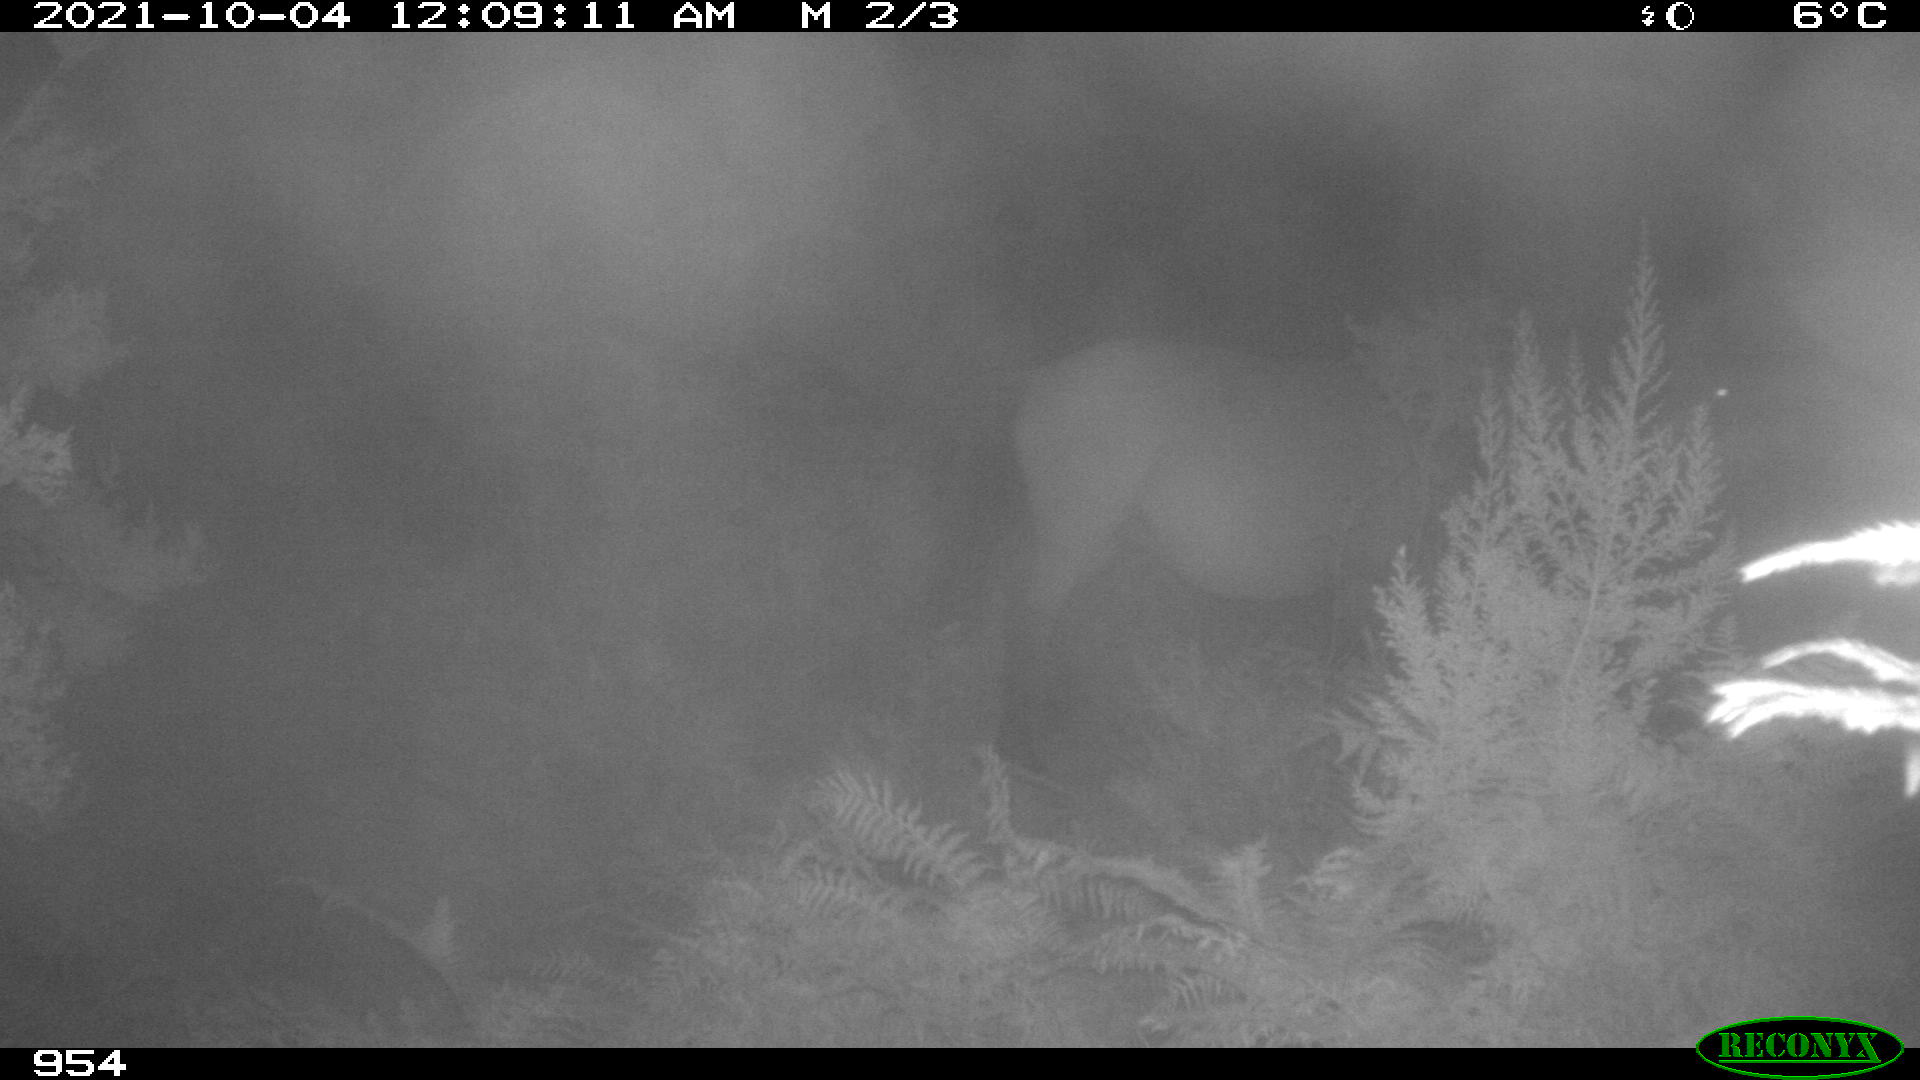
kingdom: Animalia
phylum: Chordata
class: Mammalia
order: Perissodactyla
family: Equidae
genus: Equus
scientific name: Equus caballus
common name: Horse
